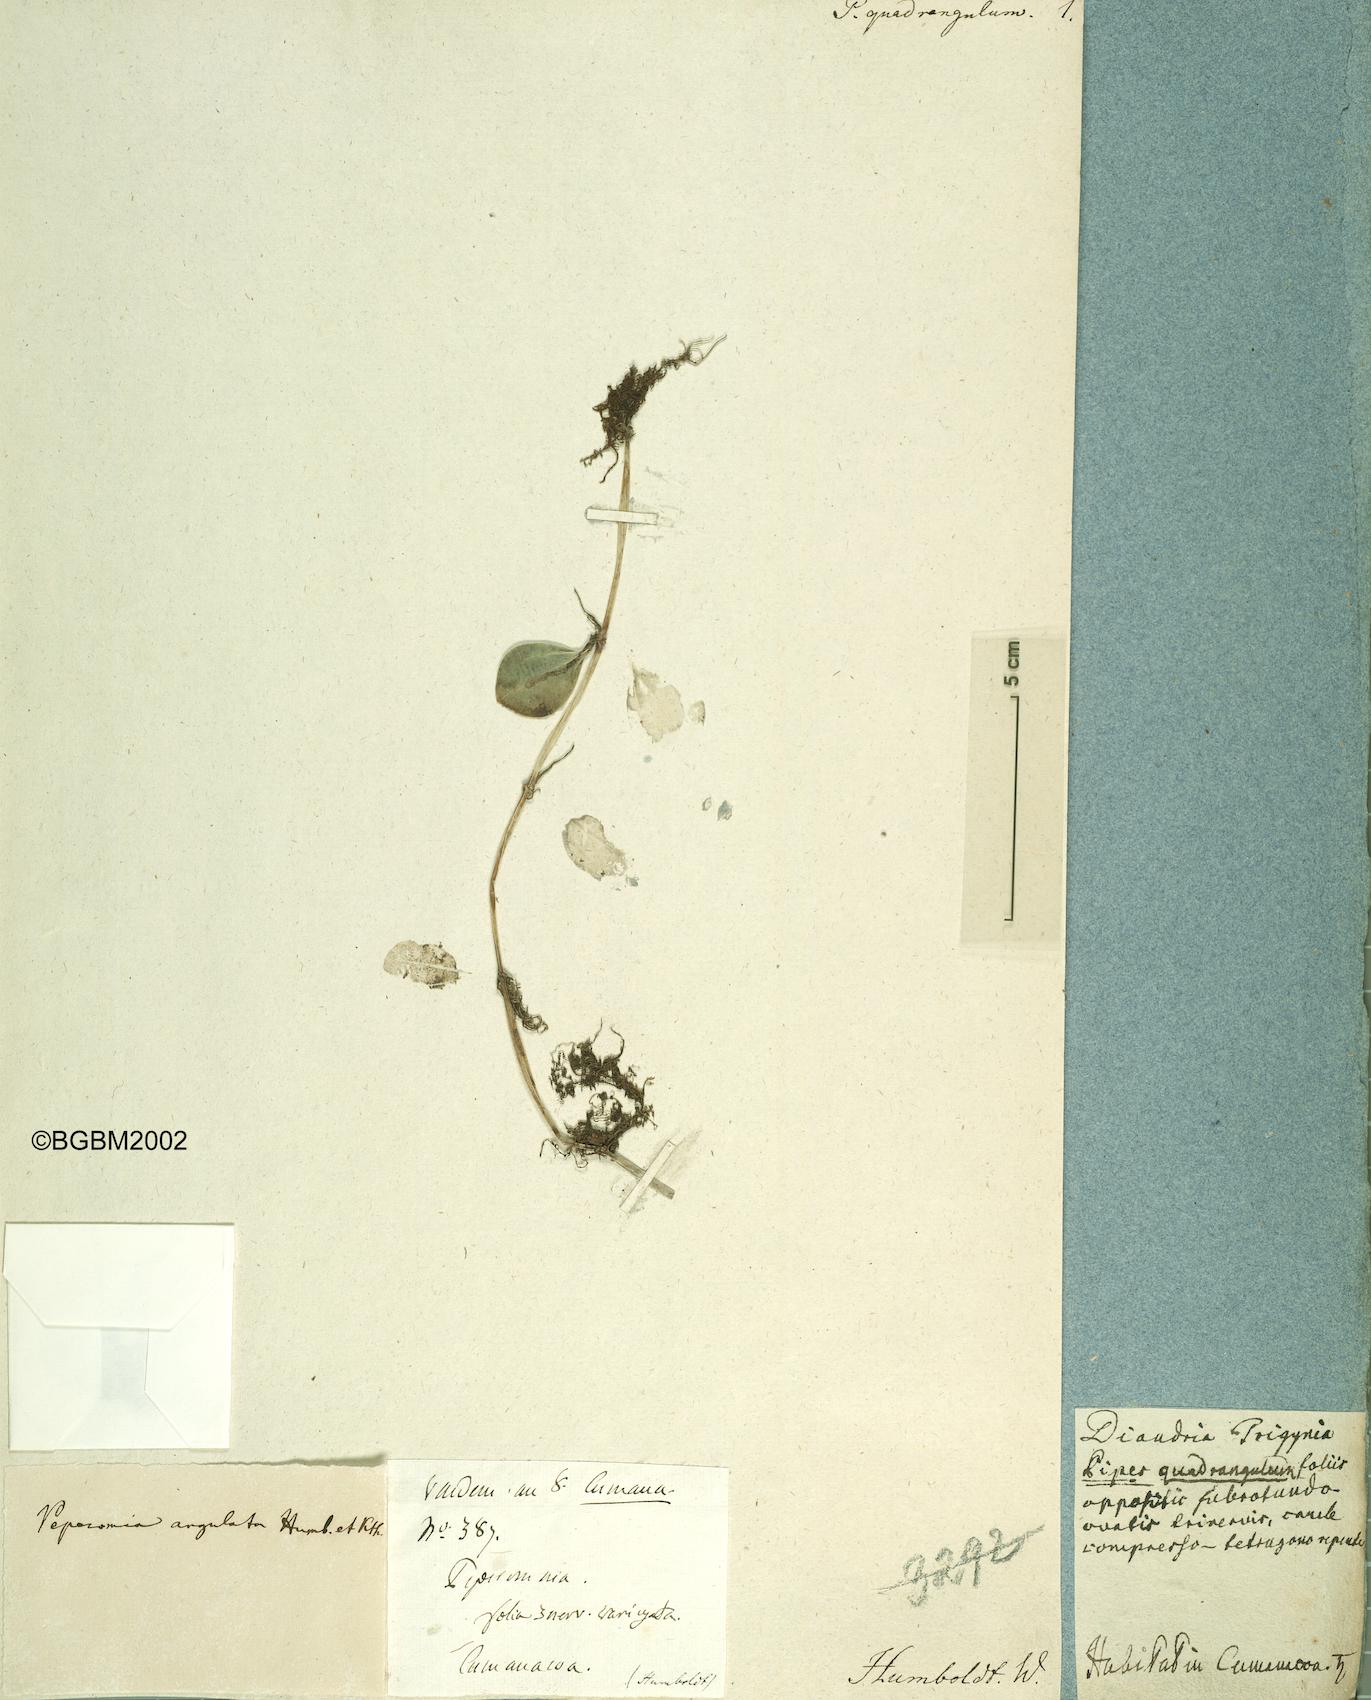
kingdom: Plantae
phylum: Tracheophyta
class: Magnoliopsida
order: Piperales
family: Piperaceae
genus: Peperomia
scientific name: Peperomia quadrangularis
